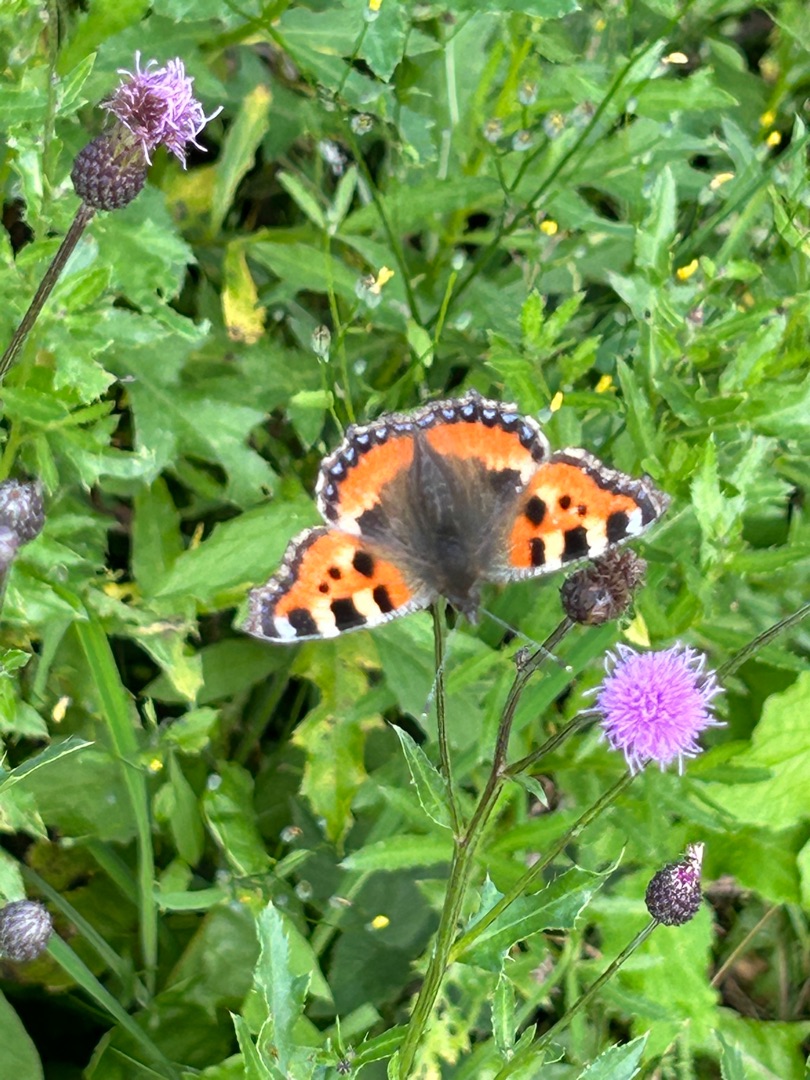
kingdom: Animalia
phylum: Arthropoda
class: Insecta
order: Lepidoptera
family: Nymphalidae
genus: Aglais
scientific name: Aglais urticae
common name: Nældens takvinge
